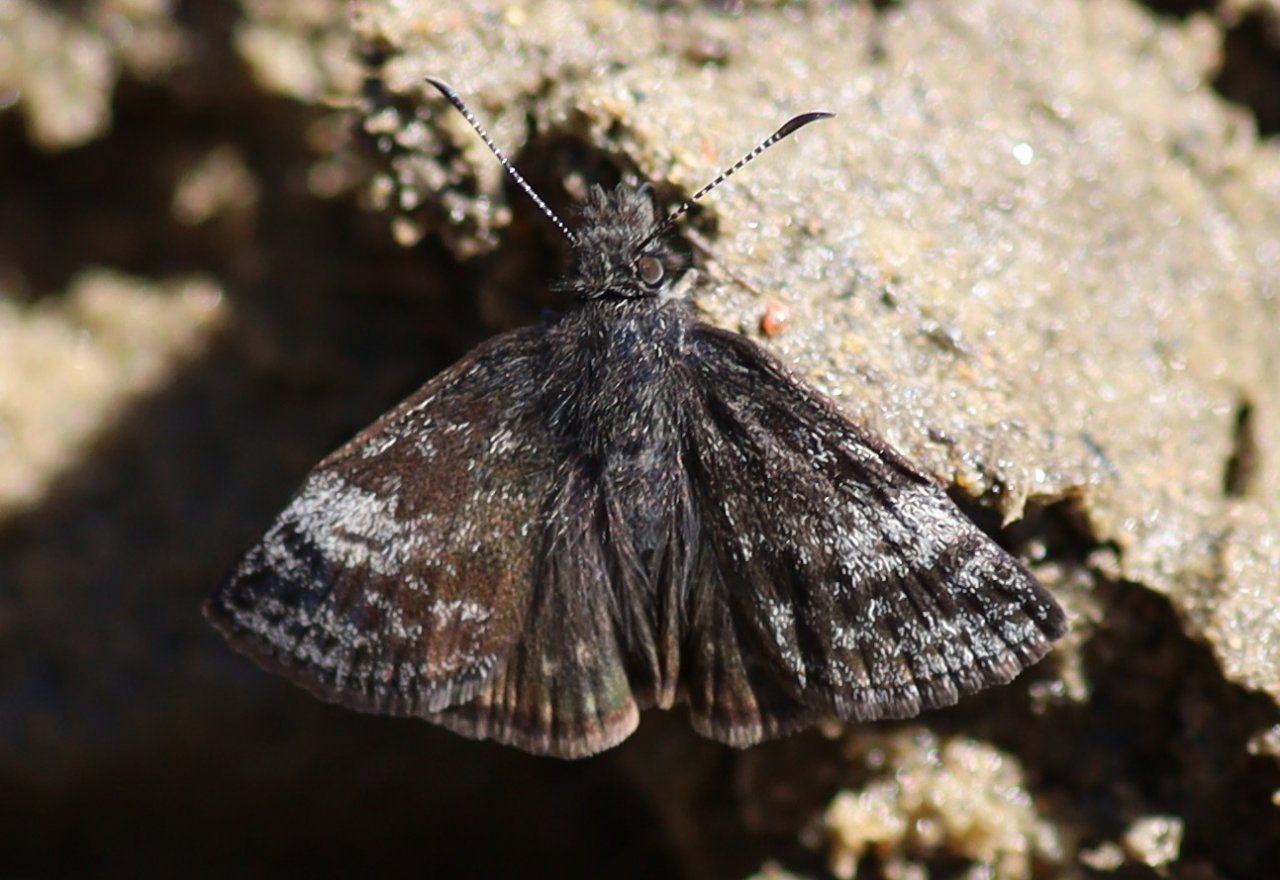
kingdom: Animalia
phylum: Arthropoda
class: Insecta
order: Lepidoptera
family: Hesperiidae
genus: Erynnis
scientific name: Erynnis icelus
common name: Dreamy Duskywing
